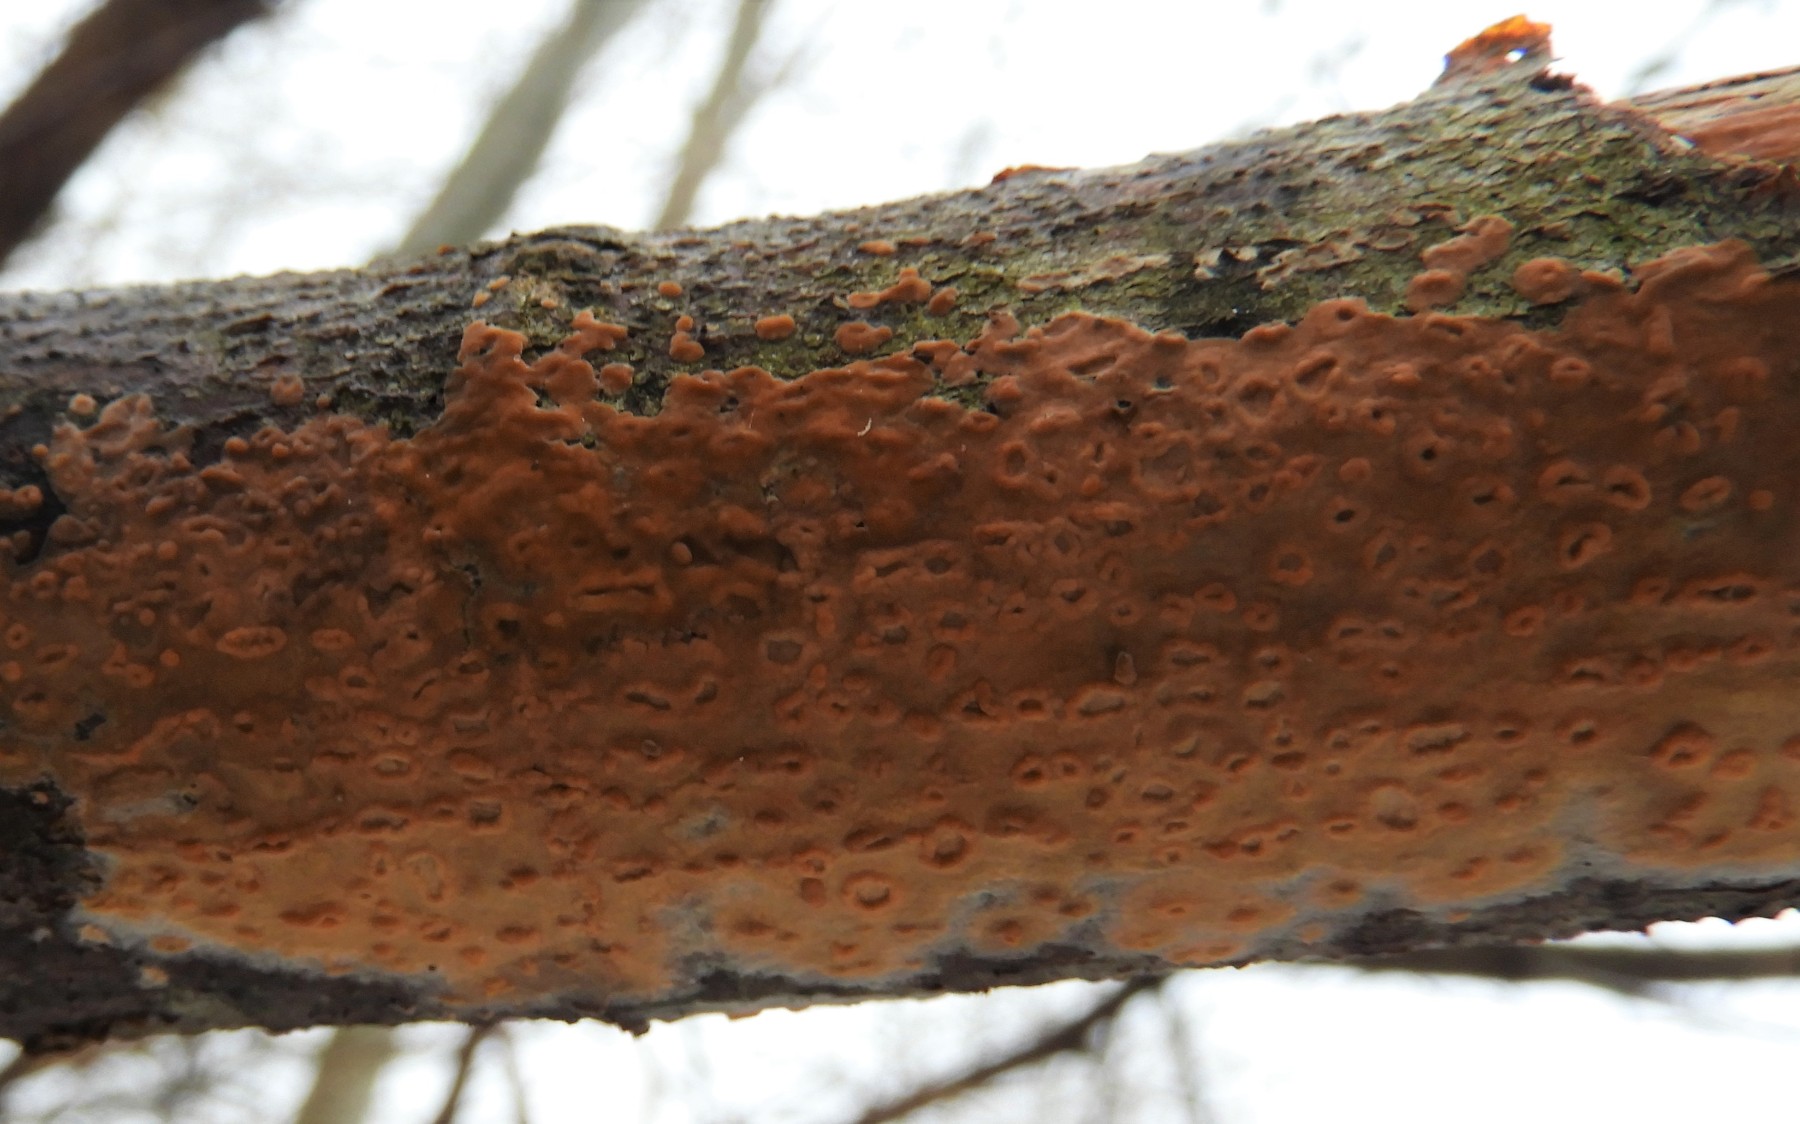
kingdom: Fungi
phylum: Basidiomycota
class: Agaricomycetes
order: Russulales
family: Peniophoraceae
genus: Peniophora
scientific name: Peniophora incarnata
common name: laksefarvet voksskind
